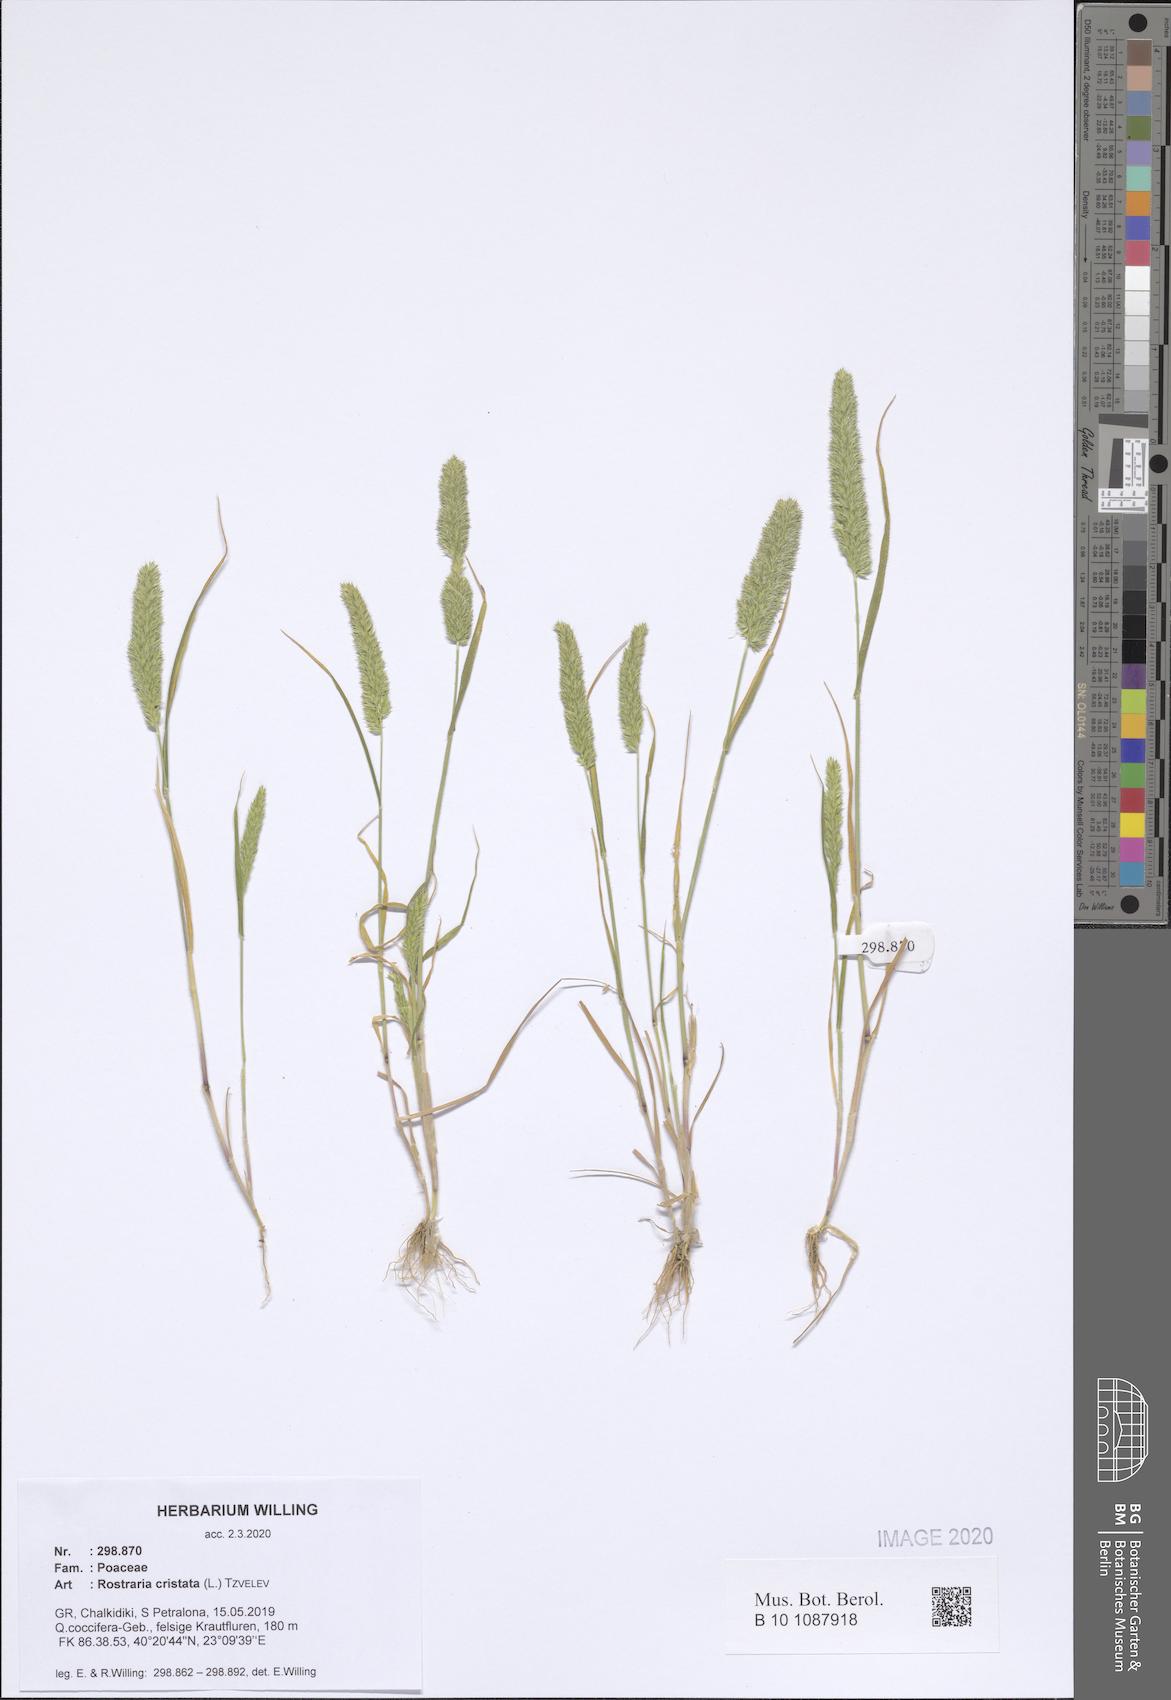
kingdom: Plantae
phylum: Tracheophyta
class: Liliopsida
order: Poales
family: Poaceae
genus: Rostraria
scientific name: Rostraria cristata
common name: Mediterranean hair-grass
